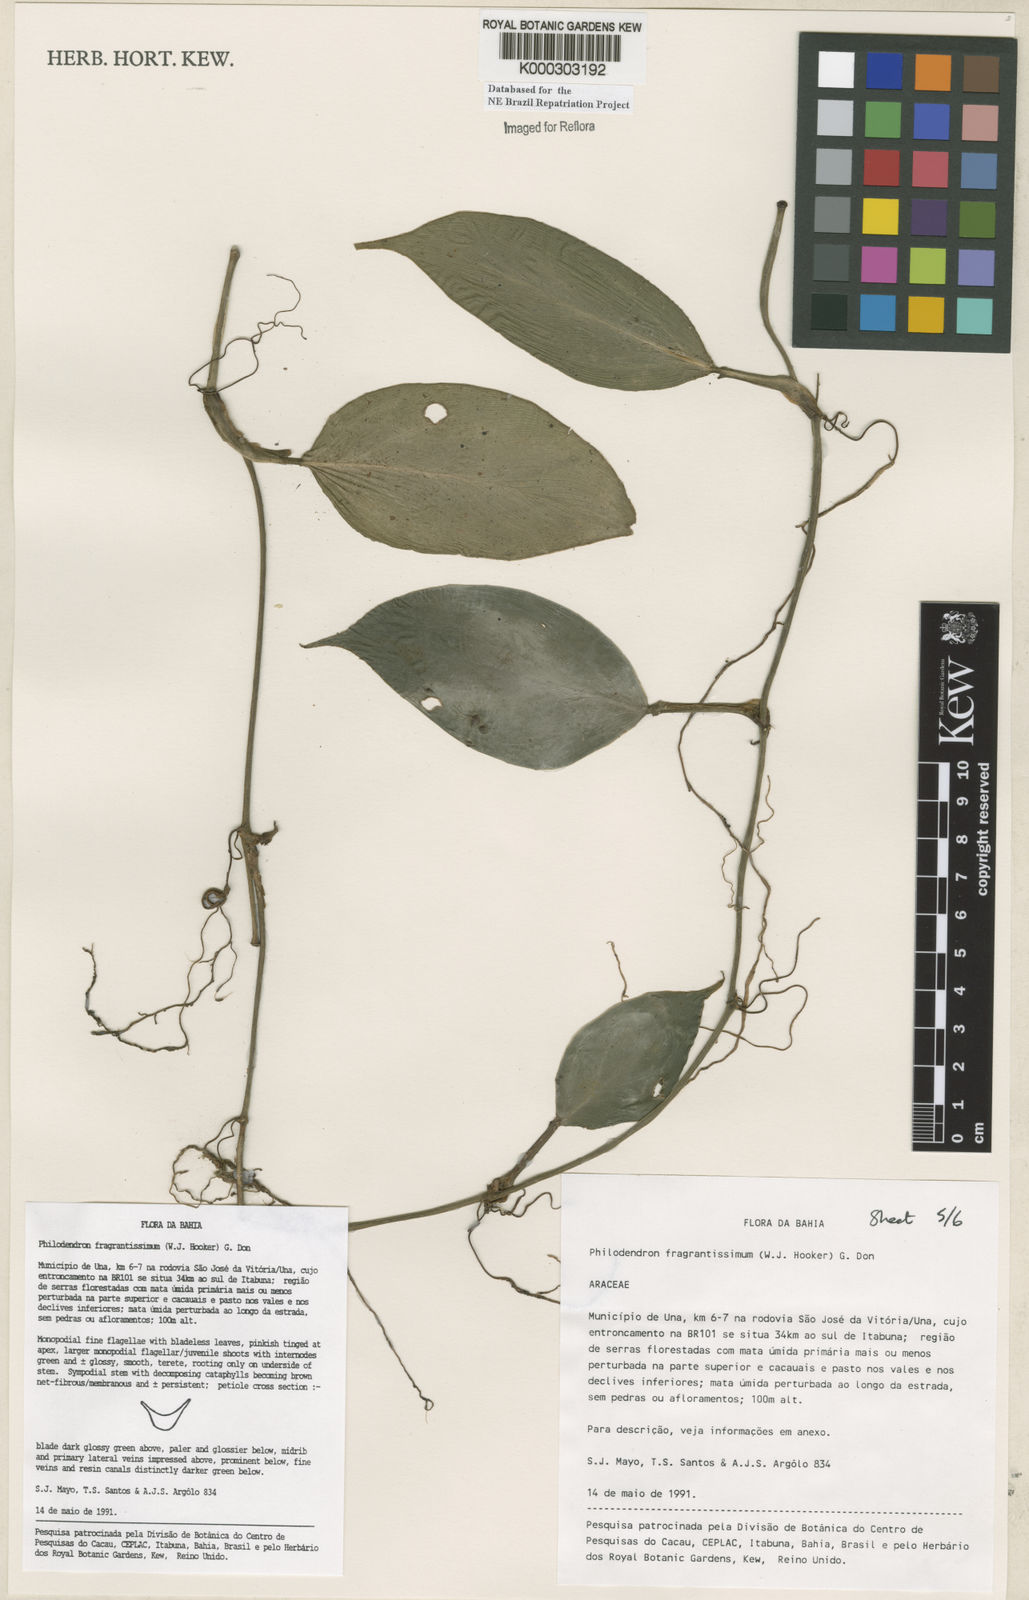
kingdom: Plantae
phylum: Tracheophyta
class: Liliopsida
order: Alismatales
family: Araceae
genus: Philodendron
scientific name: Philodendron fragrantissimum
